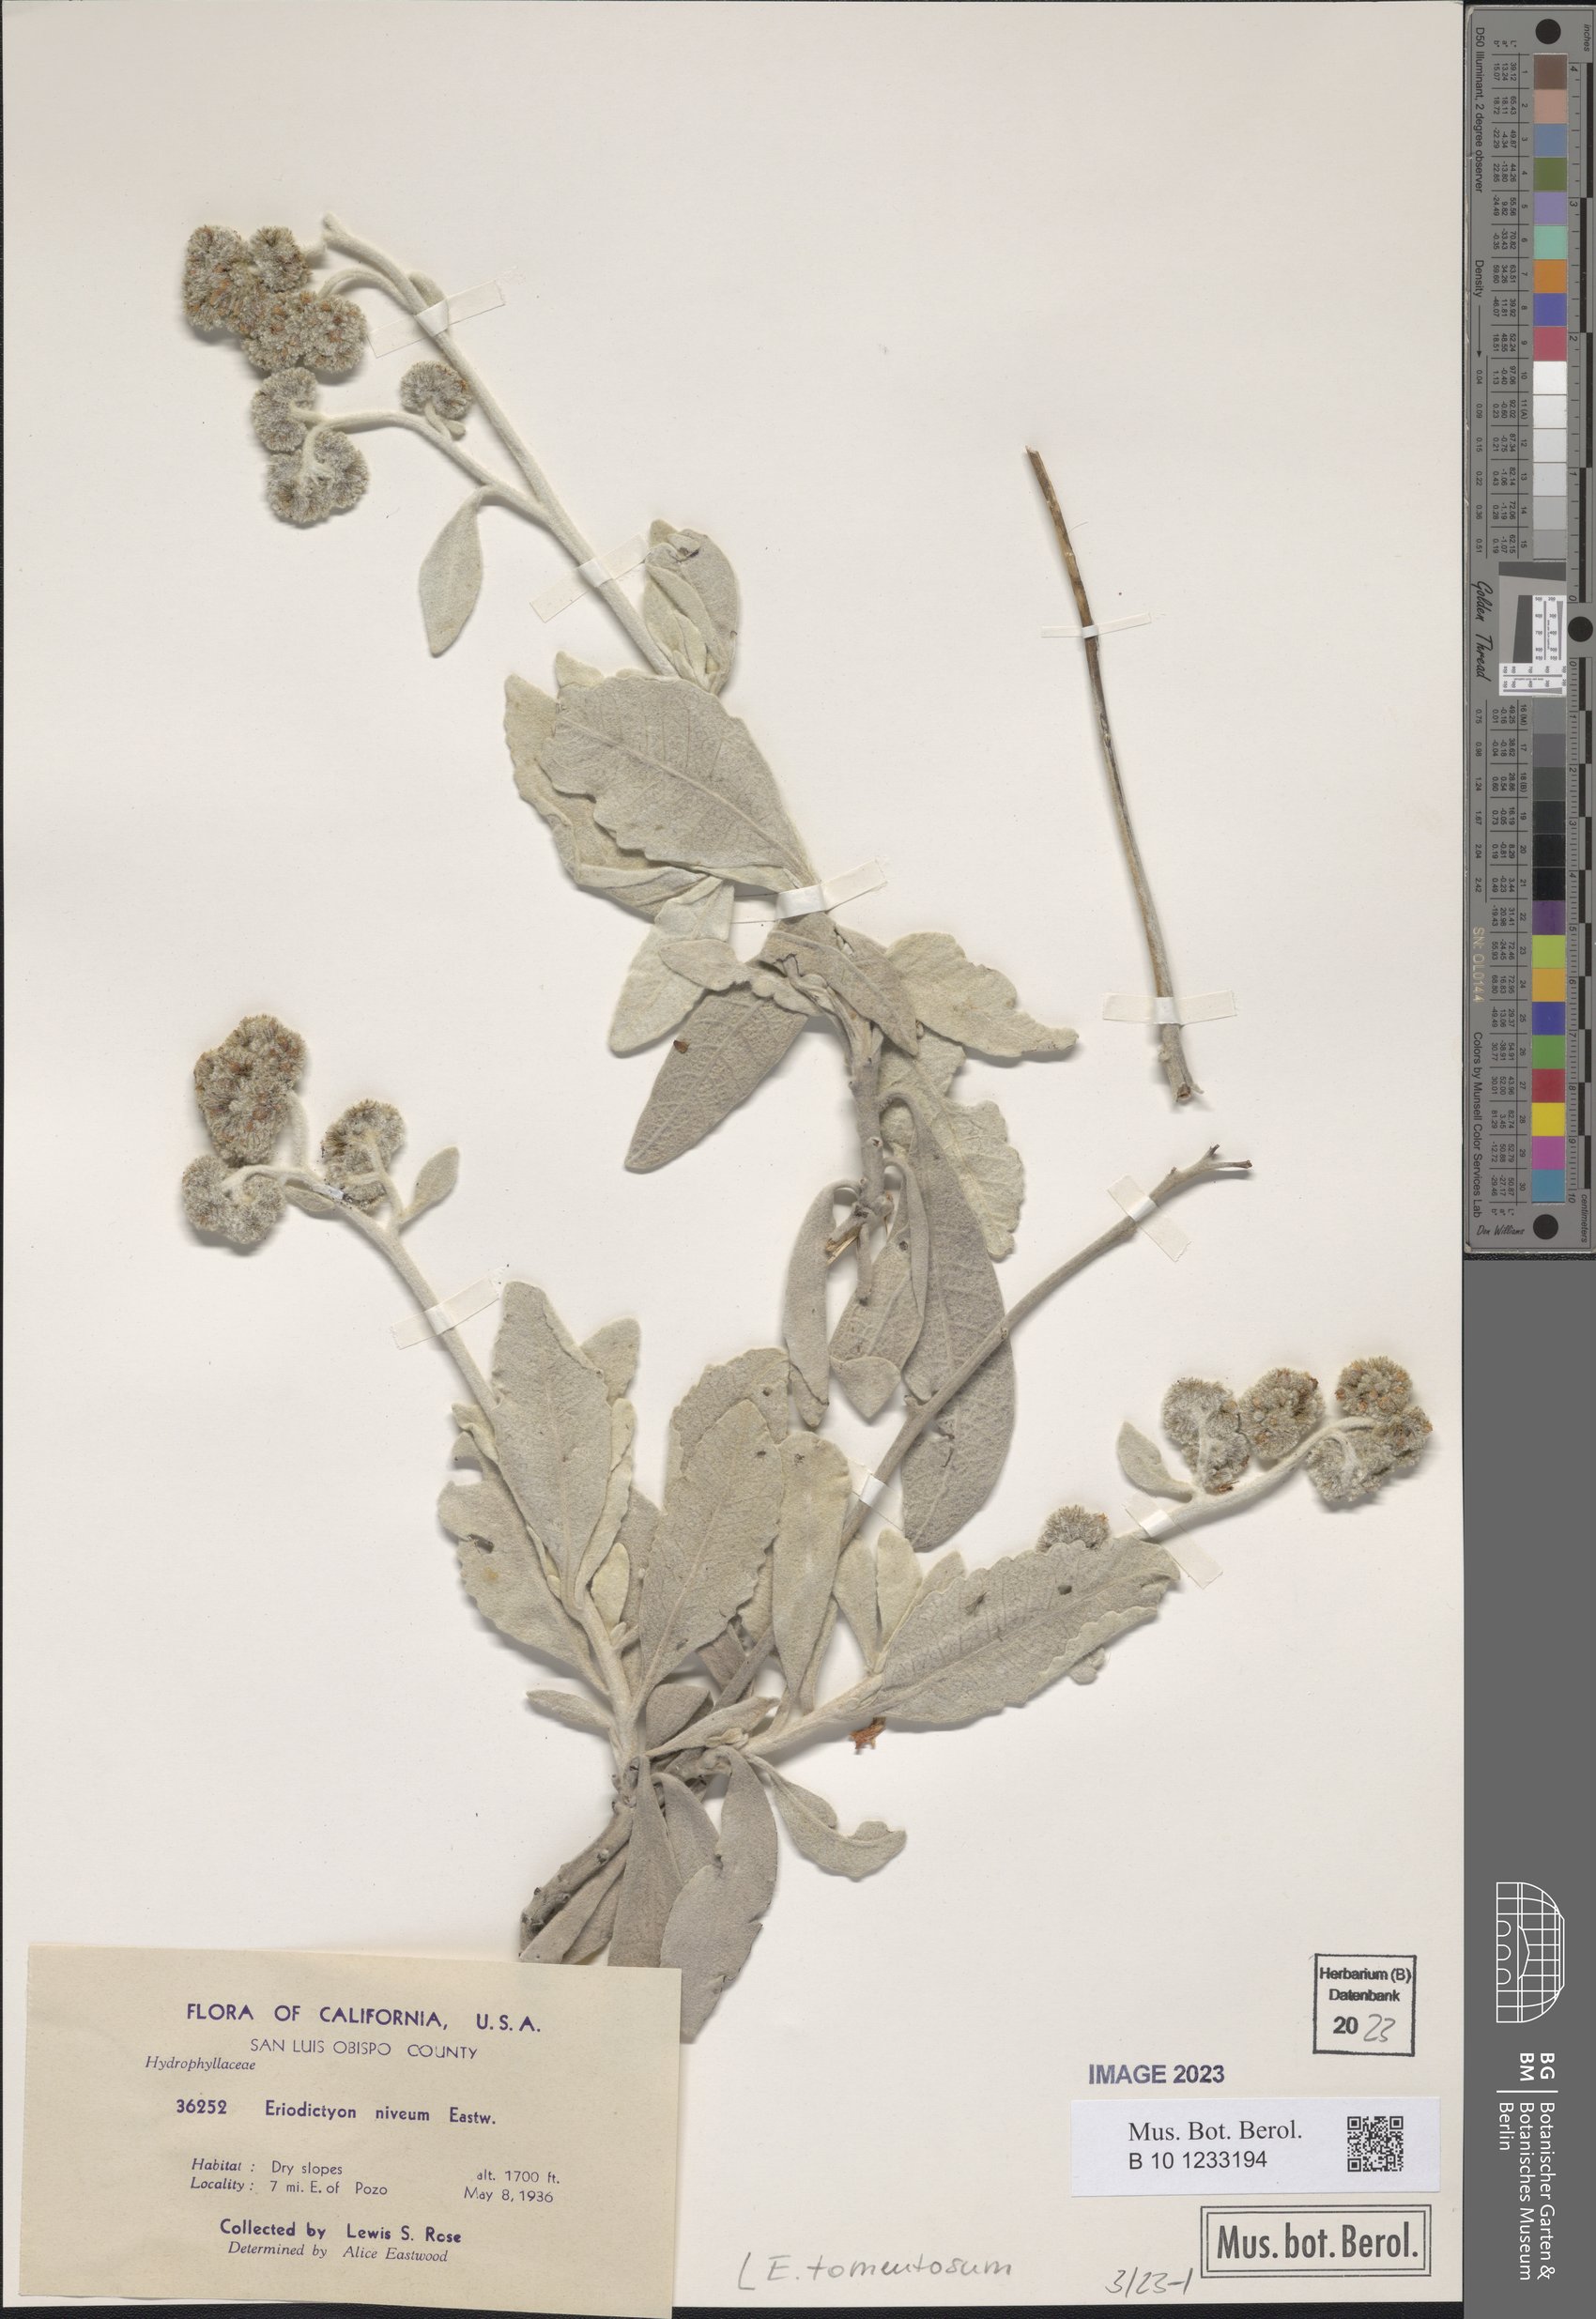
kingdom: Plantae
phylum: Tracheophyta
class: Magnoliopsida
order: Boraginales
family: Namaceae
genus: Eriodictyon
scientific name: Eriodictyon tomentosum
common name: Woolly yerba-santa
